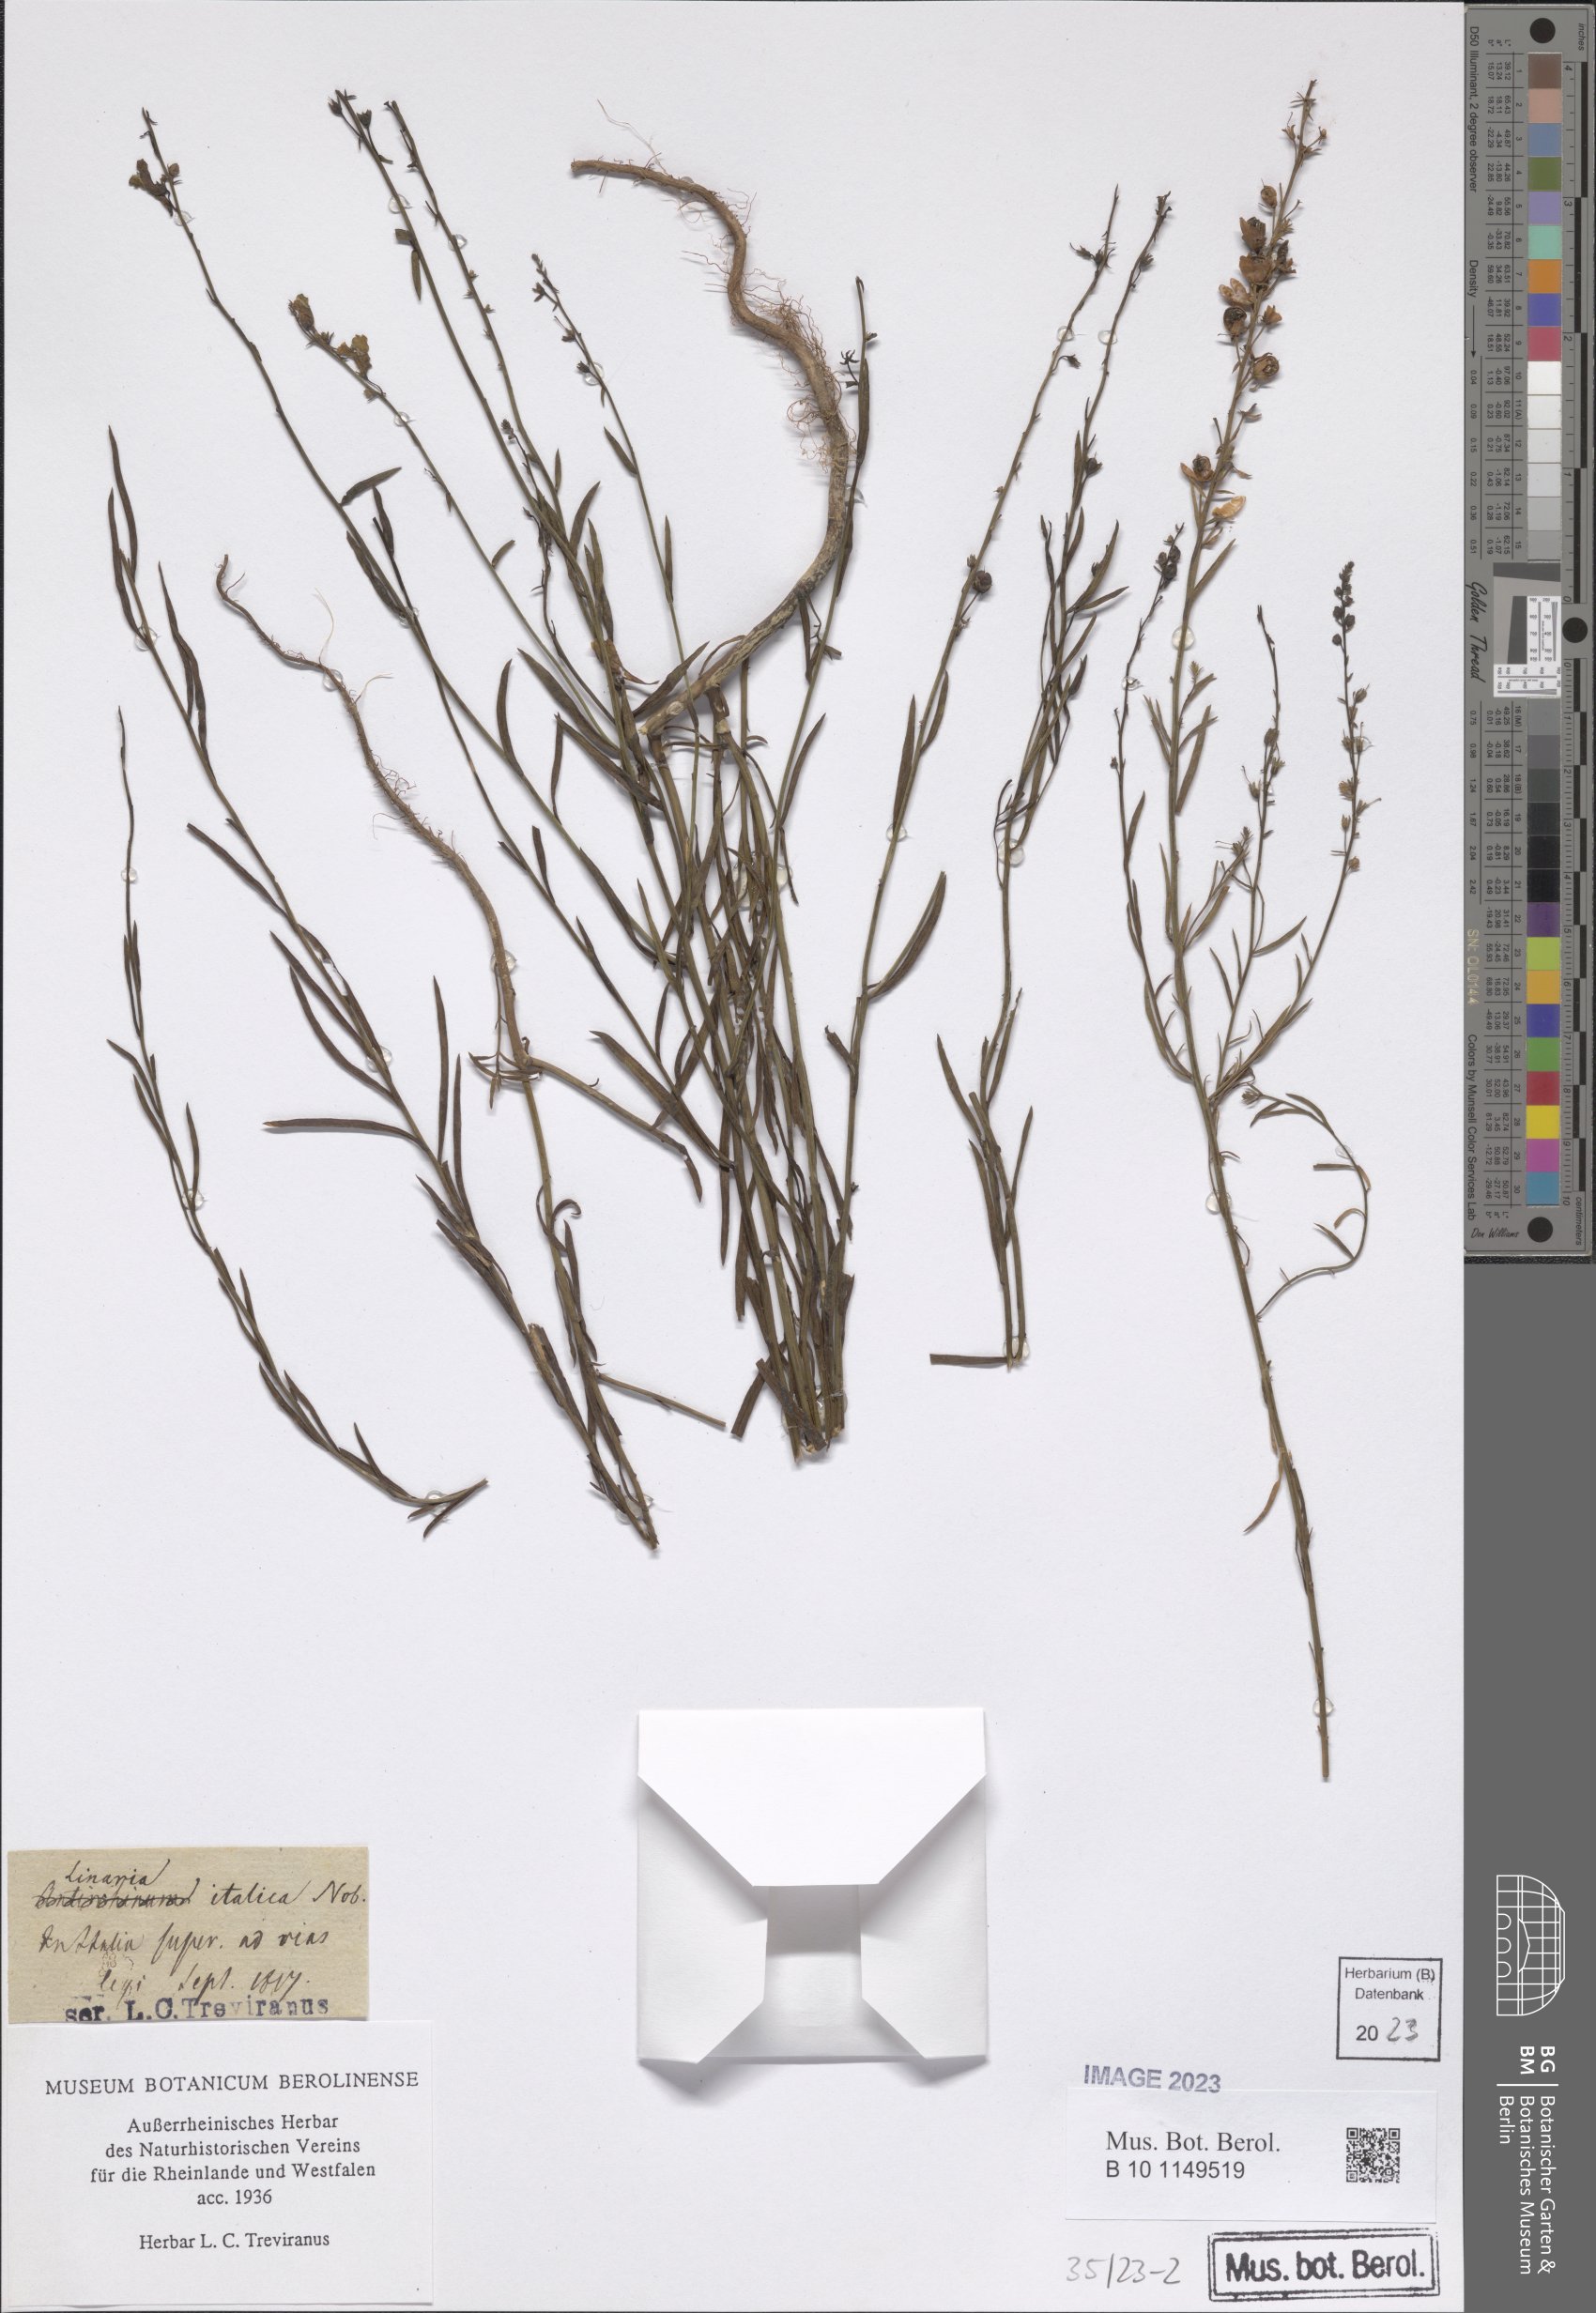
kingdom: Plantae
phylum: Tracheophyta
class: Magnoliopsida
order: Lamiales
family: Plantaginaceae
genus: Linaria
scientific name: Linaria angustissima
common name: Italian toadflax
